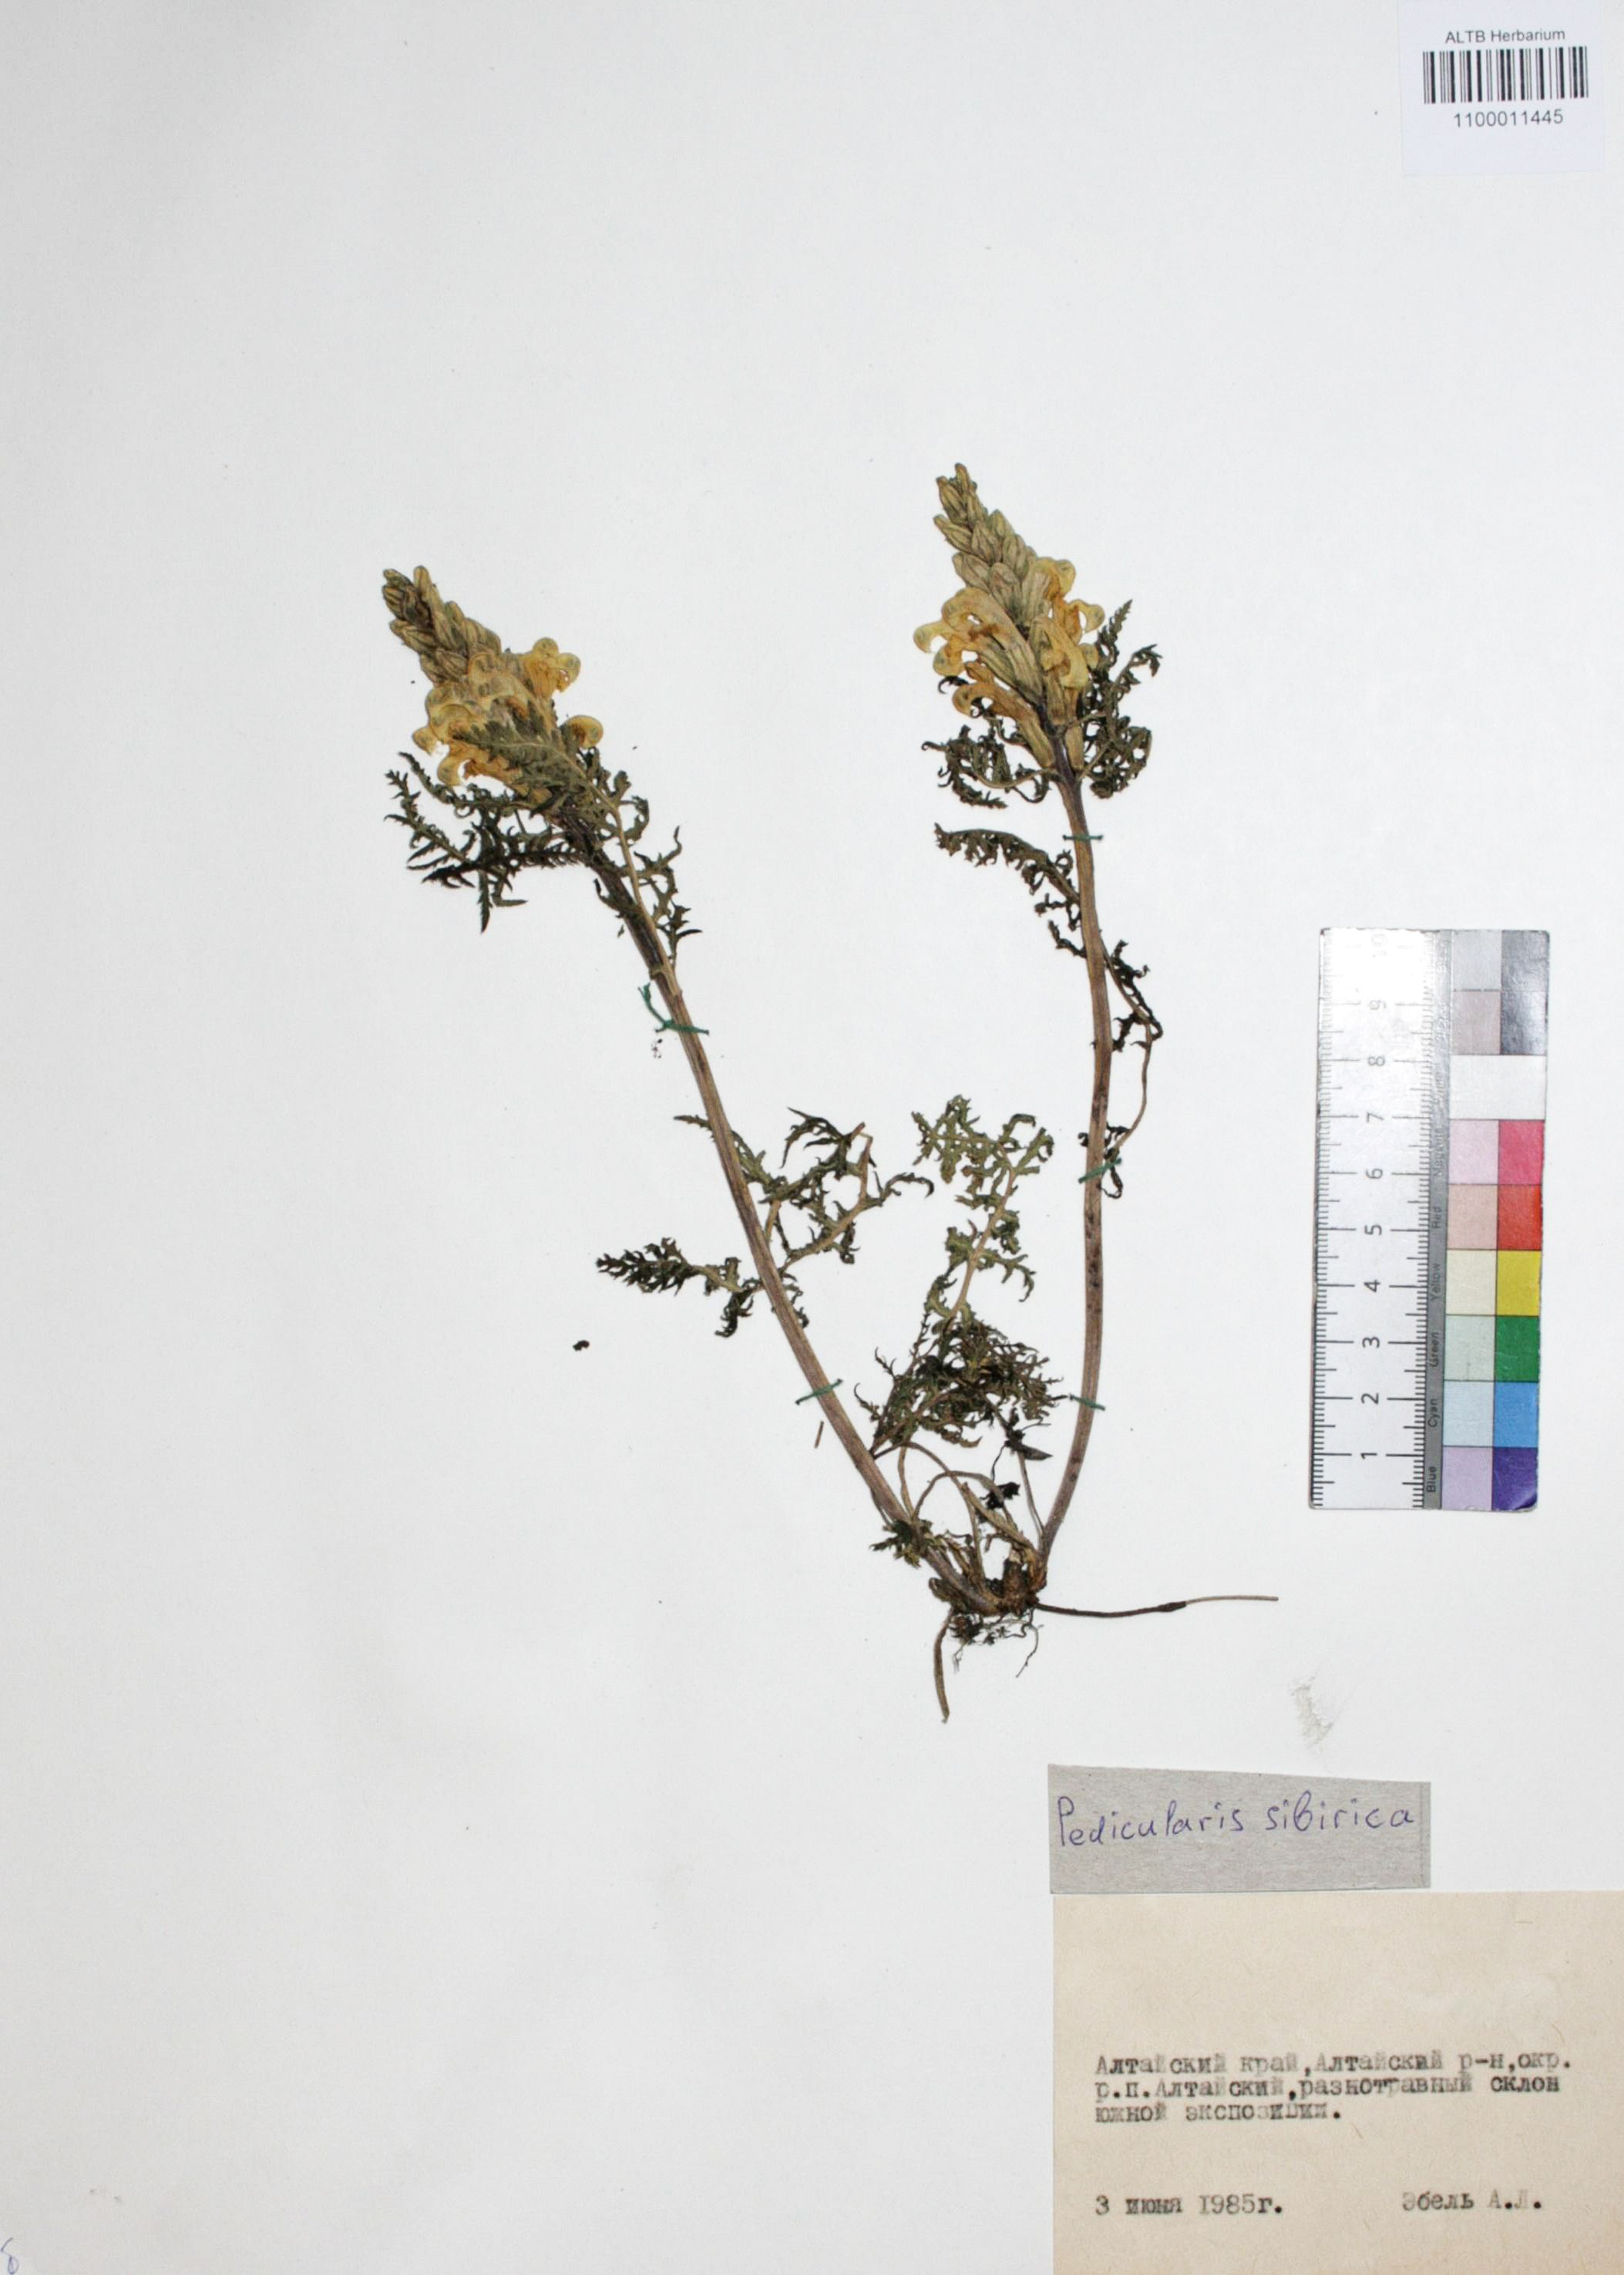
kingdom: Plantae
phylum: Tracheophyta
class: Magnoliopsida
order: Lamiales
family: Orobanchaceae
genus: Pedicularis
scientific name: Pedicularis sibirica
